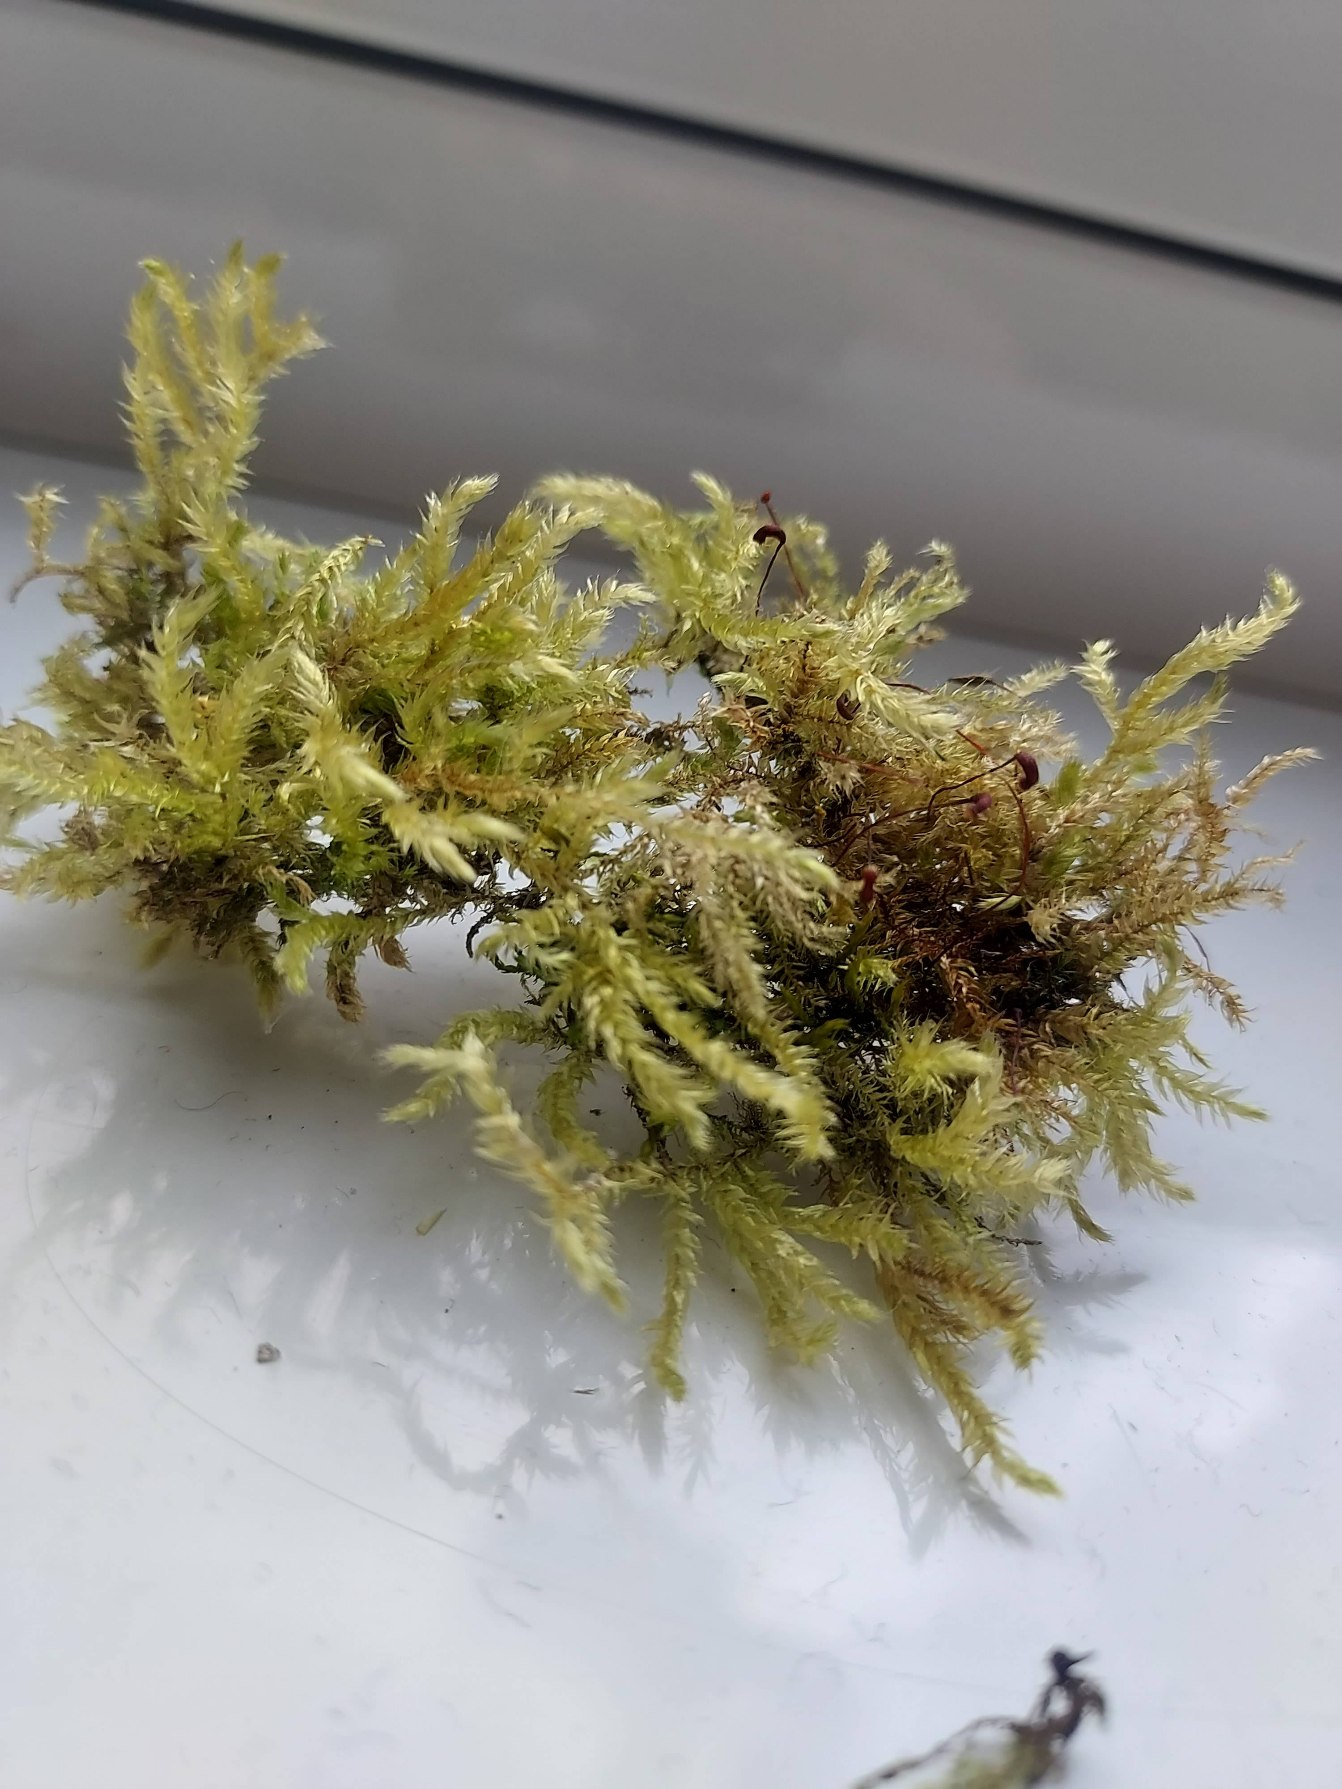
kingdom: Plantae
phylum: Bryophyta
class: Bryopsida
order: Hypnales
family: Brachytheciaceae
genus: Brachythecium
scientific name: Brachythecium rutabulum
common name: Almindelig kortkapsel
